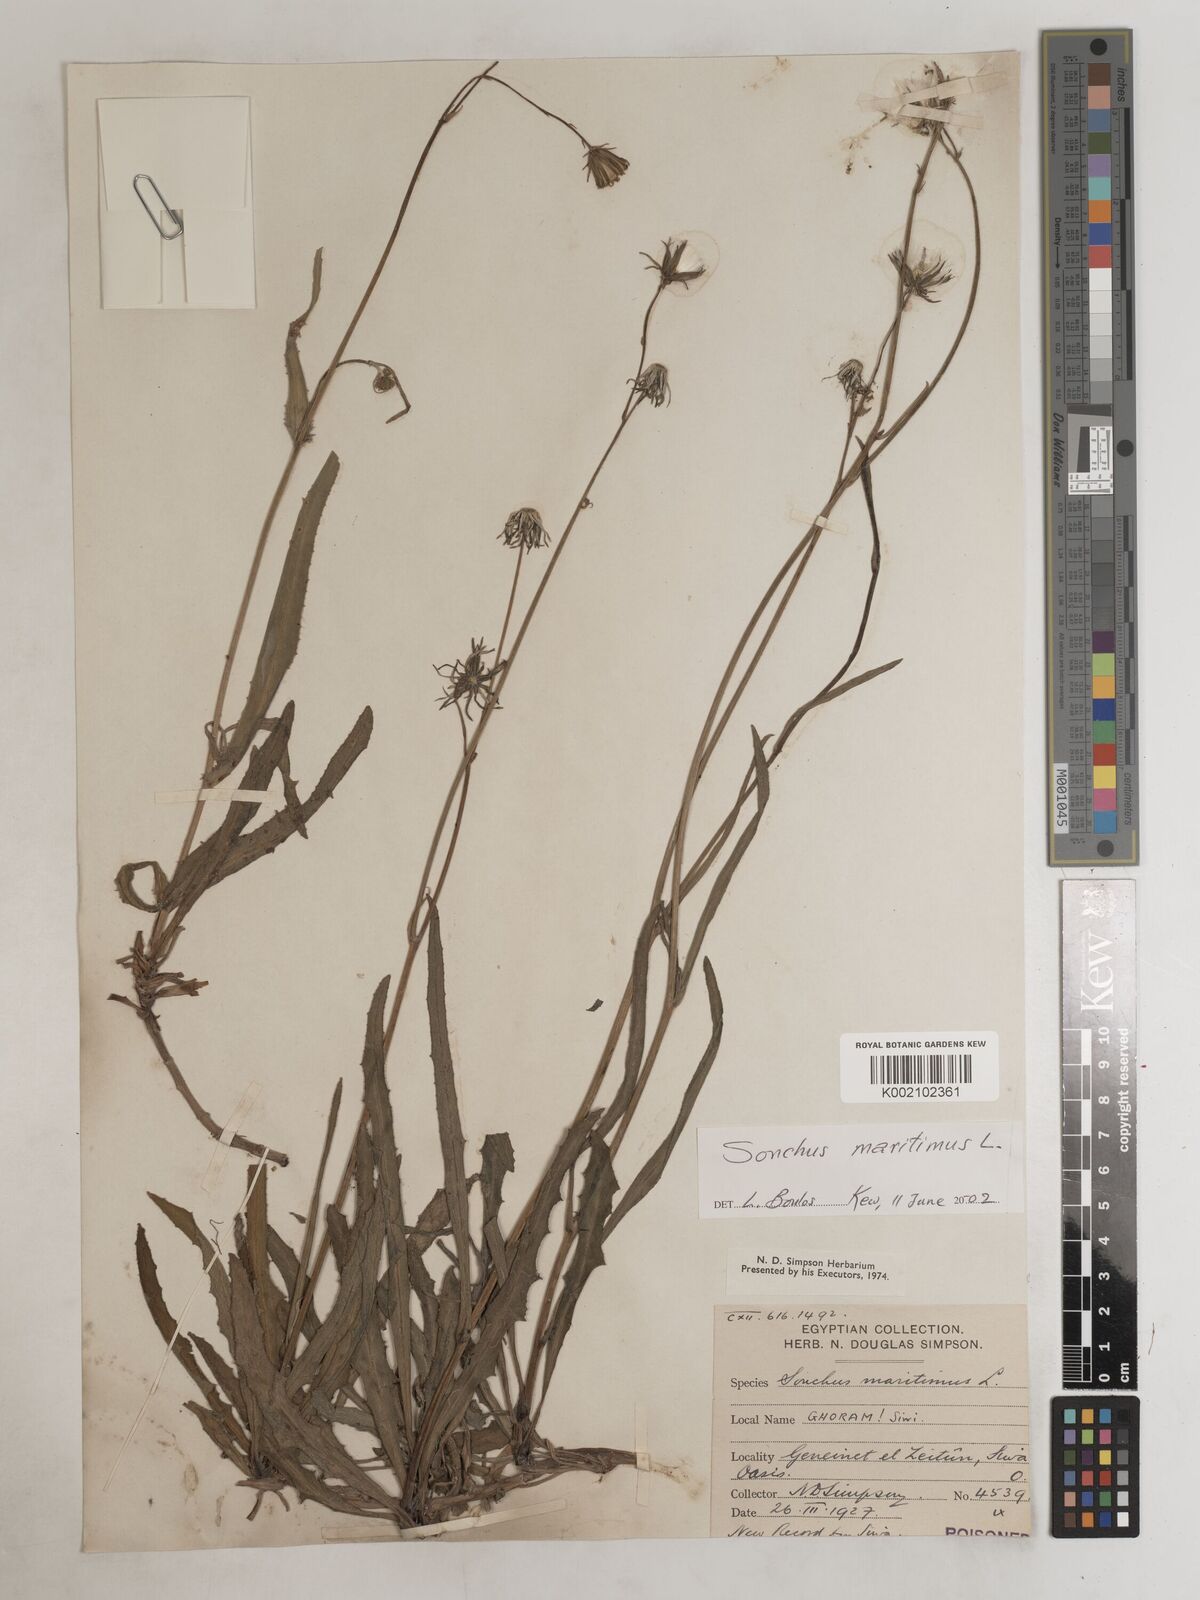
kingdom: Plantae
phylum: Tracheophyta
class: Magnoliopsida
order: Asterales
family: Asteraceae
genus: Sonchus
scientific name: Sonchus maritimus
